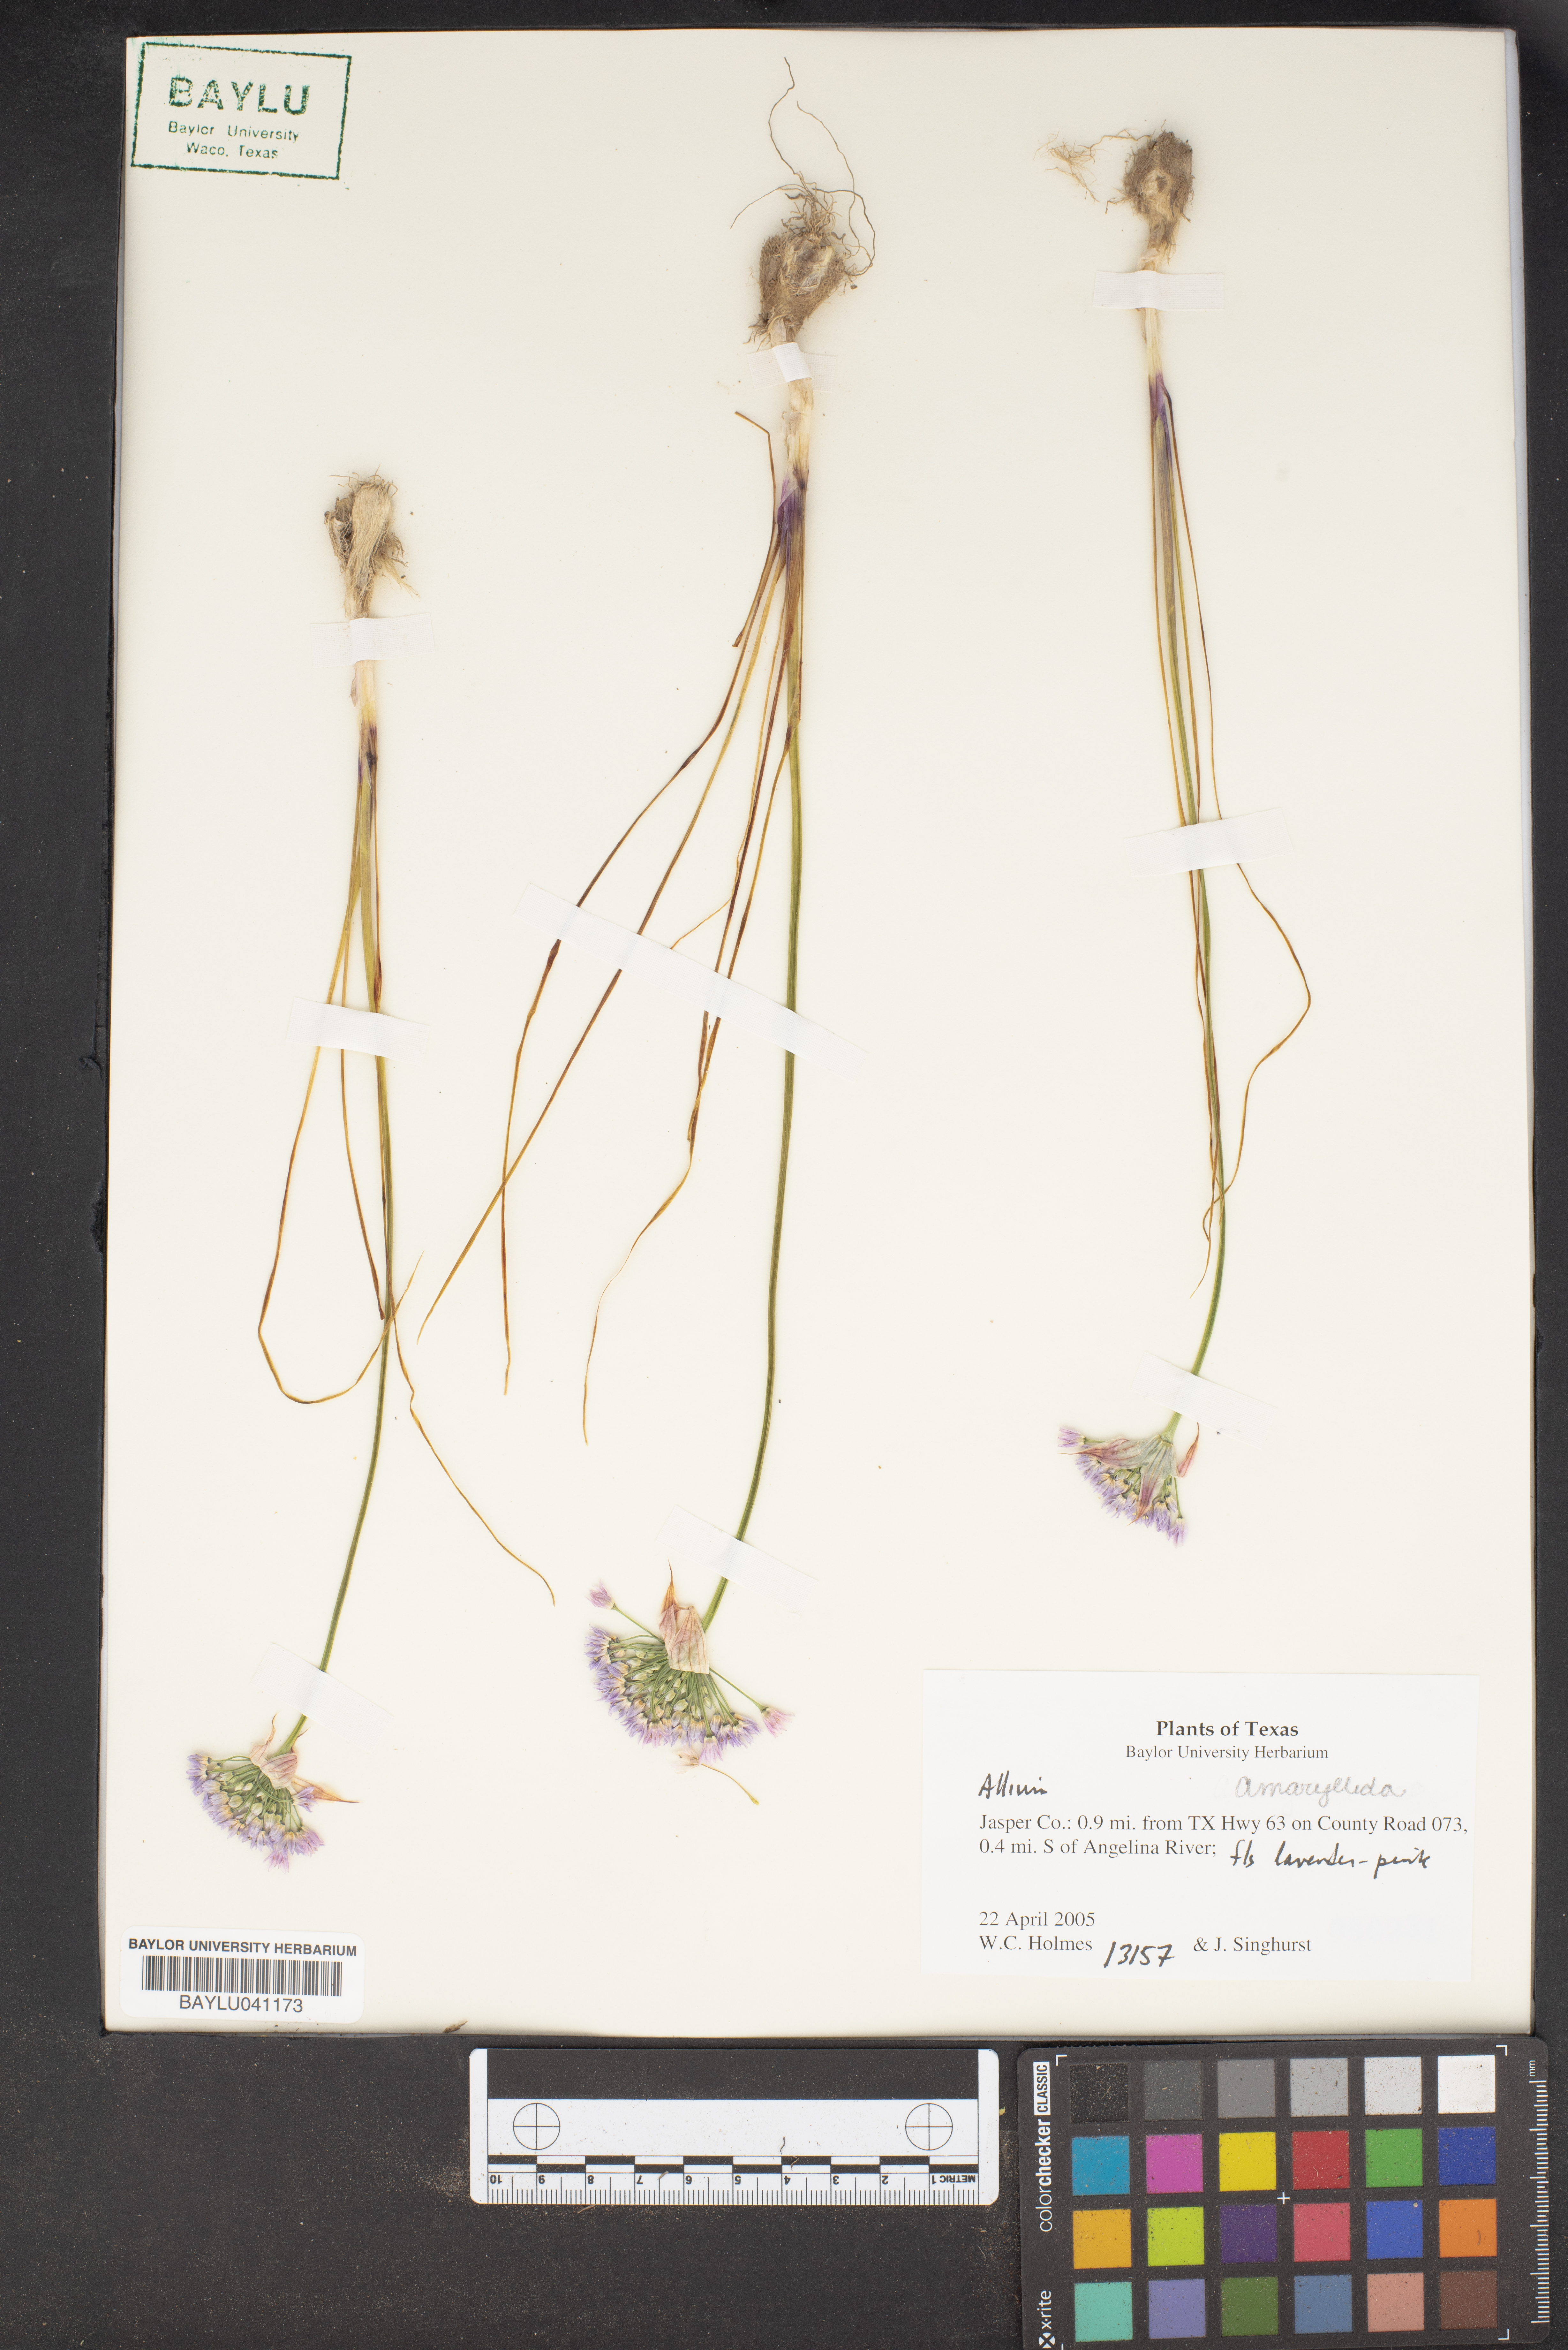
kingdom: Plantae
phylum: Tracheophyta
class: Liliopsida
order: Asparagales
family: Amaryllidaceae
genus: Allium
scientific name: Allium
